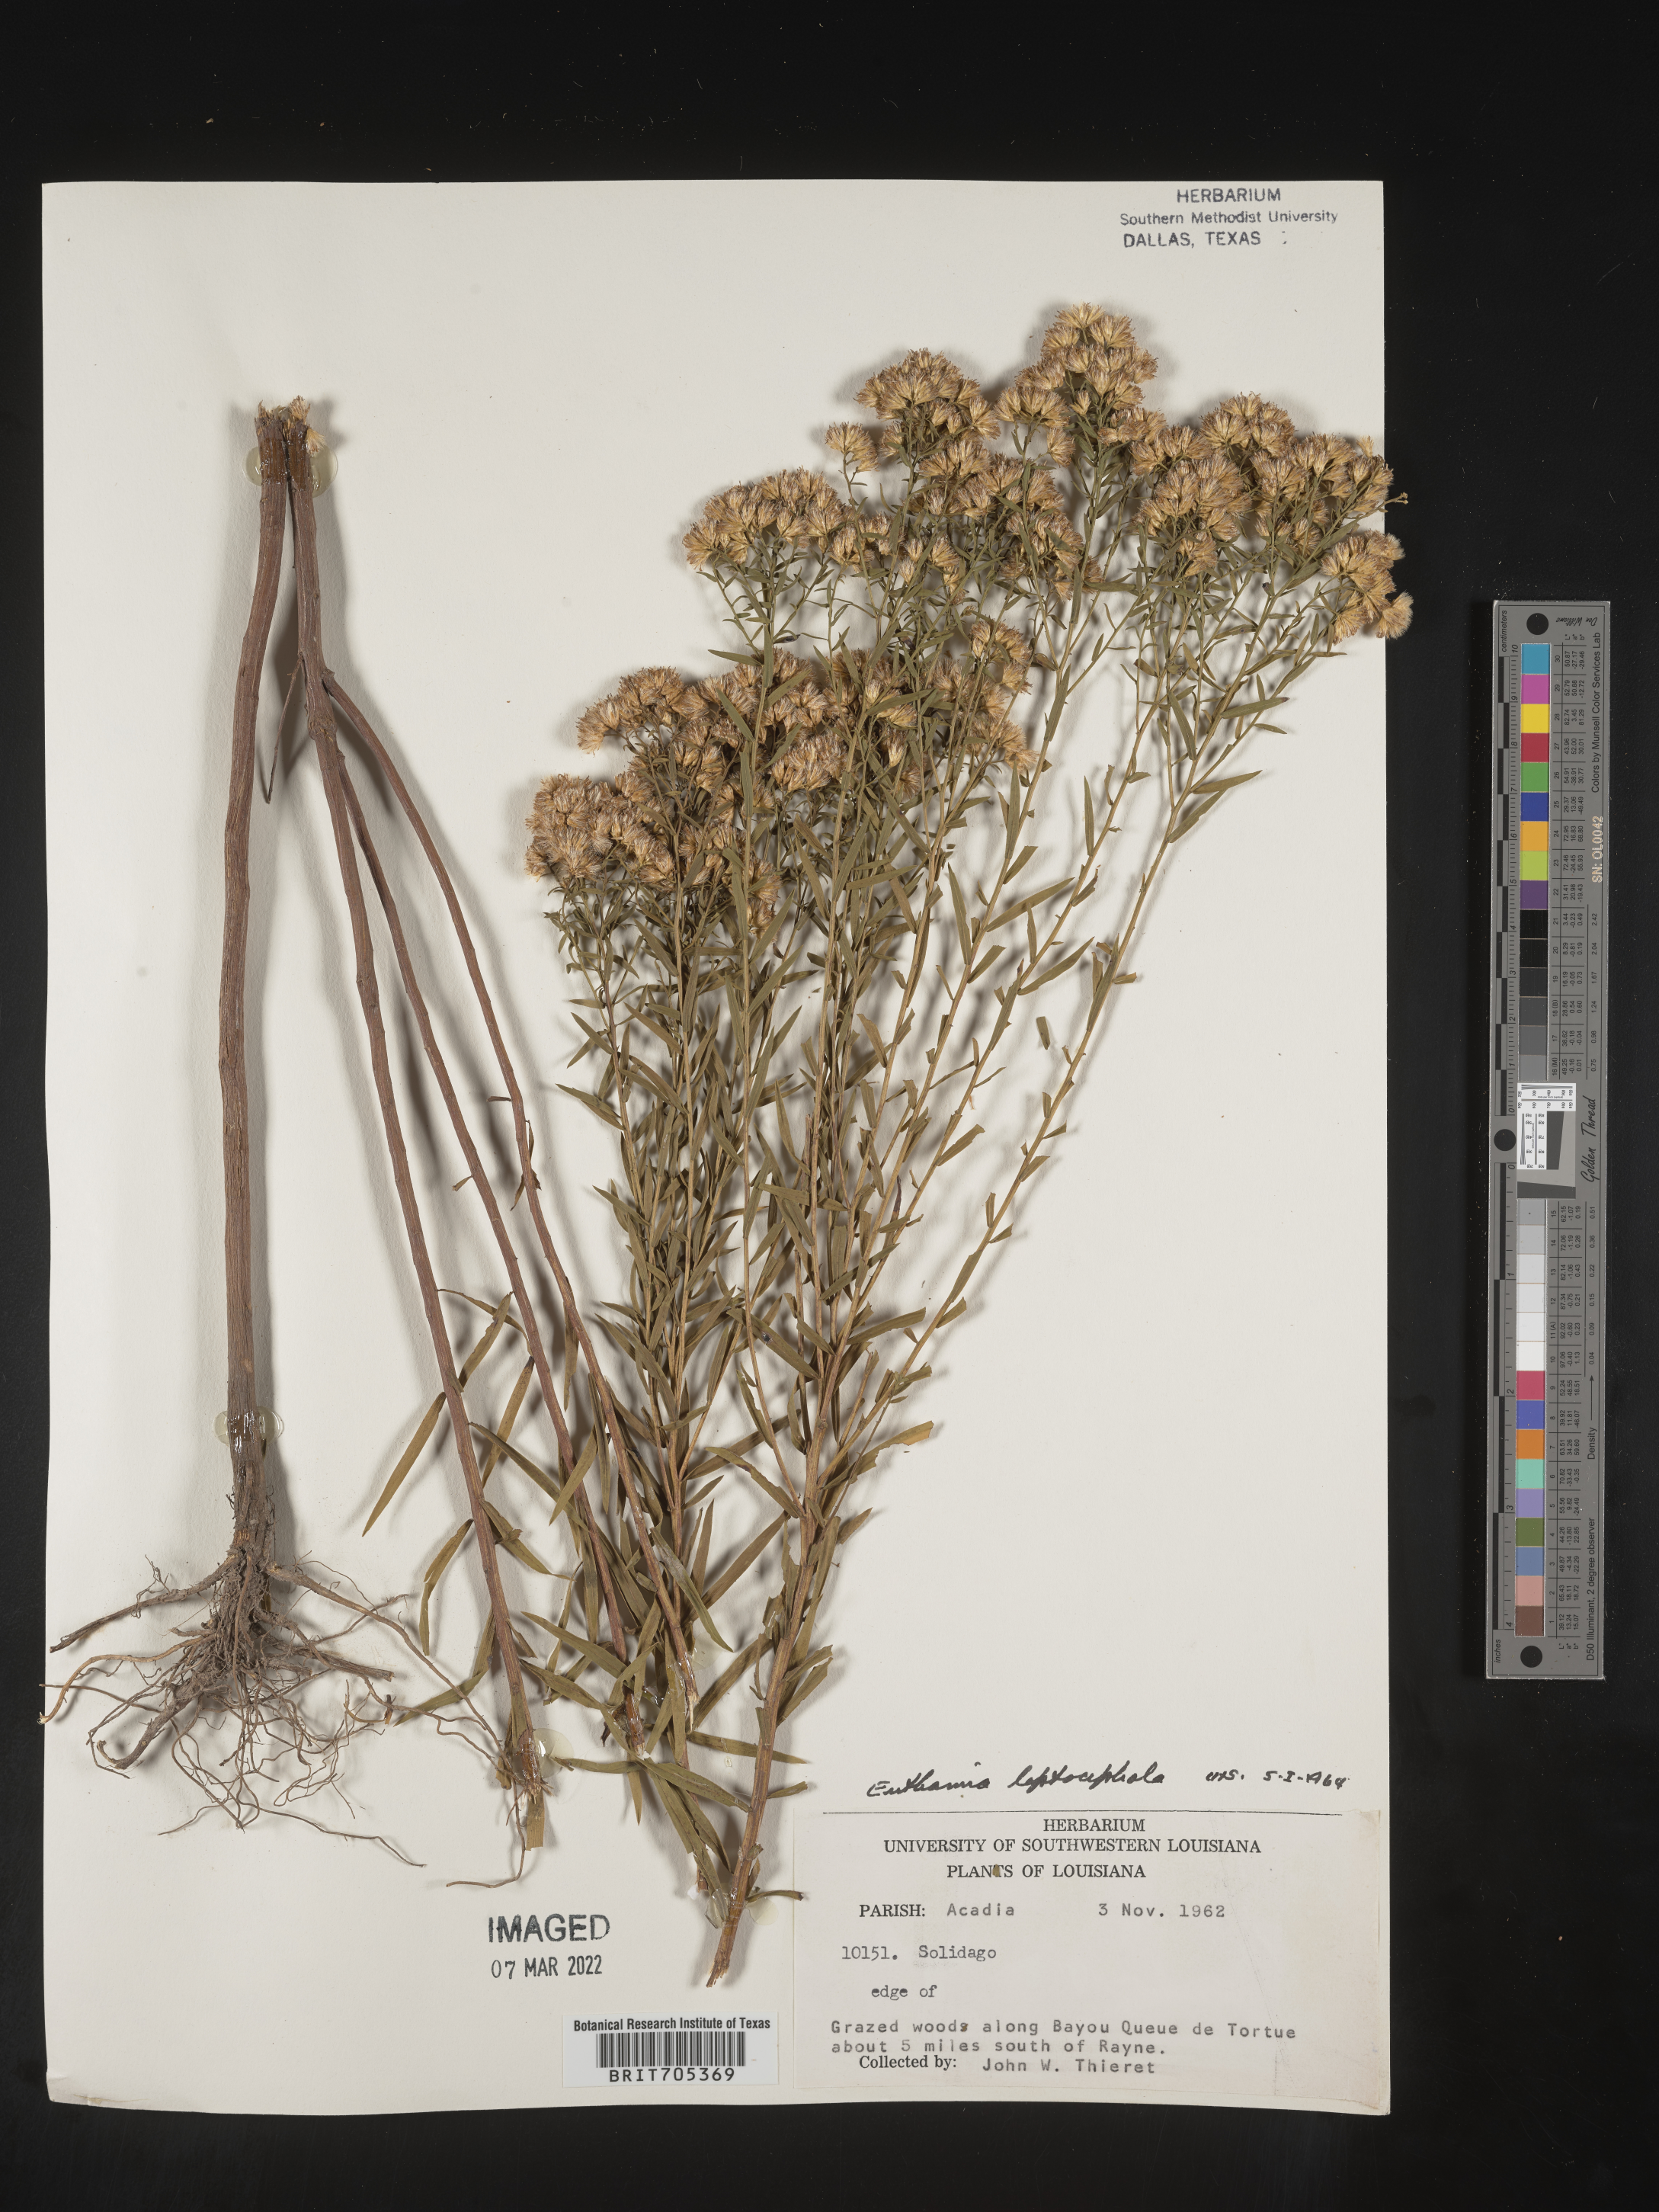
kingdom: Plantae
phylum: Tracheophyta
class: Magnoliopsida
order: Asterales
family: Asteraceae
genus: Euthamia
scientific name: Euthamia leptocephala
